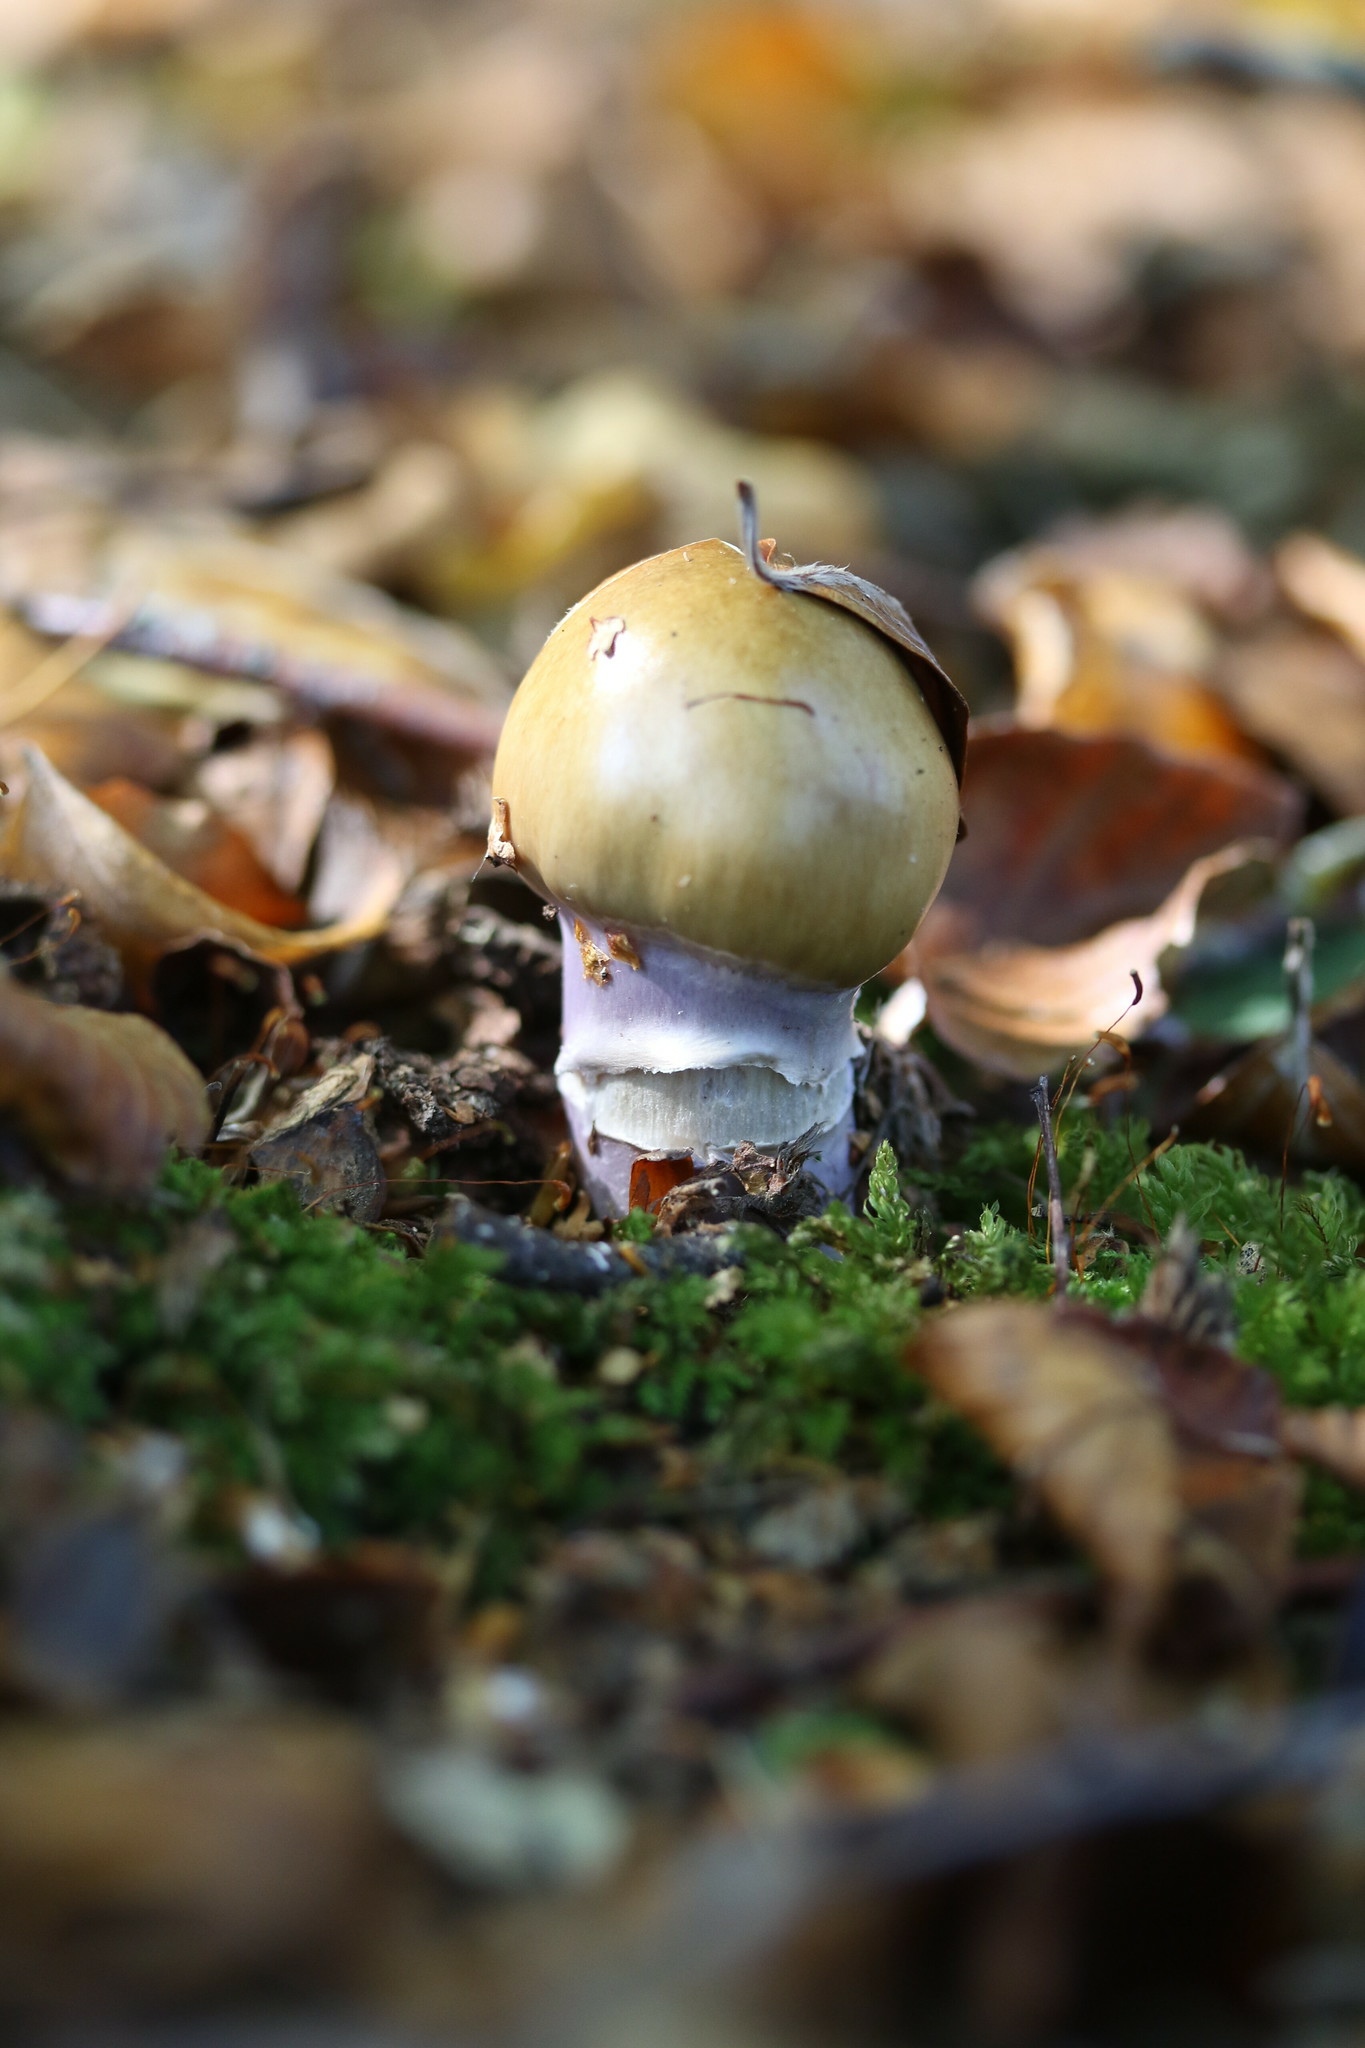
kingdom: Fungi
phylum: Basidiomycota
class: Agaricomycetes
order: Agaricales
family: Cortinariaceae
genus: Cortinarius
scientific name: Cortinarius
